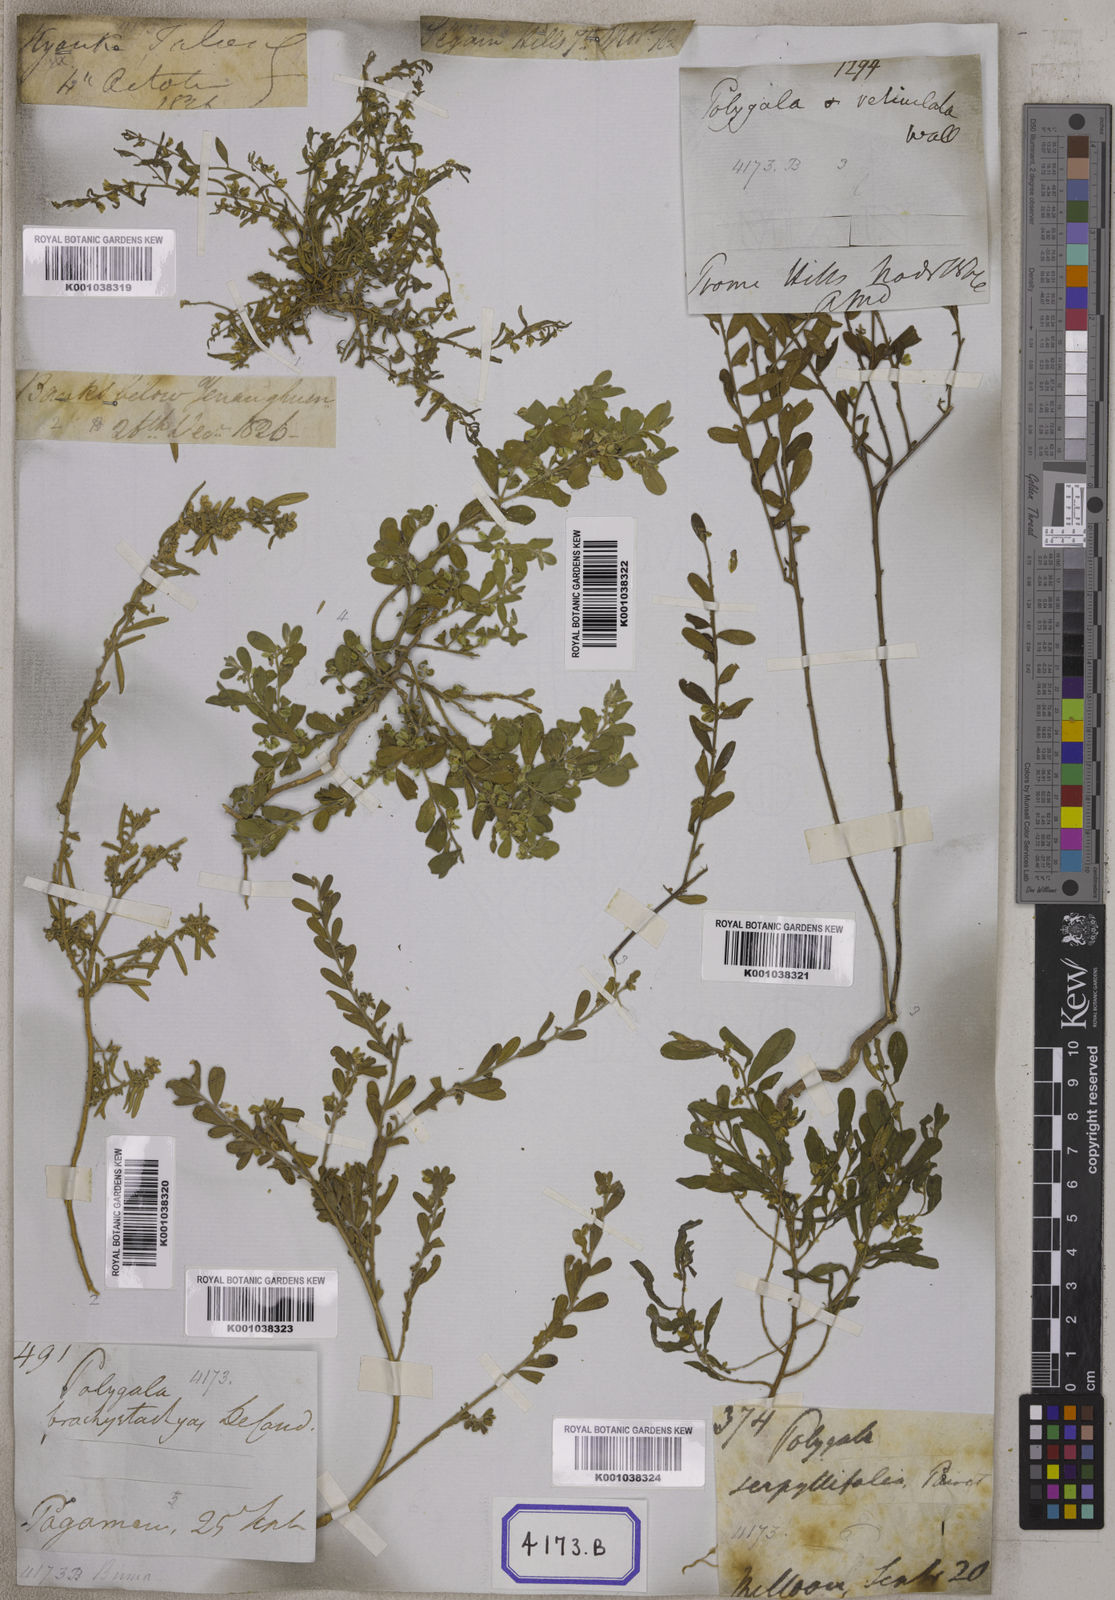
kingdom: Plantae
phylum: Tracheophyta
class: Magnoliopsida
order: Fabales
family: Polygalaceae
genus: Polygala
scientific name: Polygala
